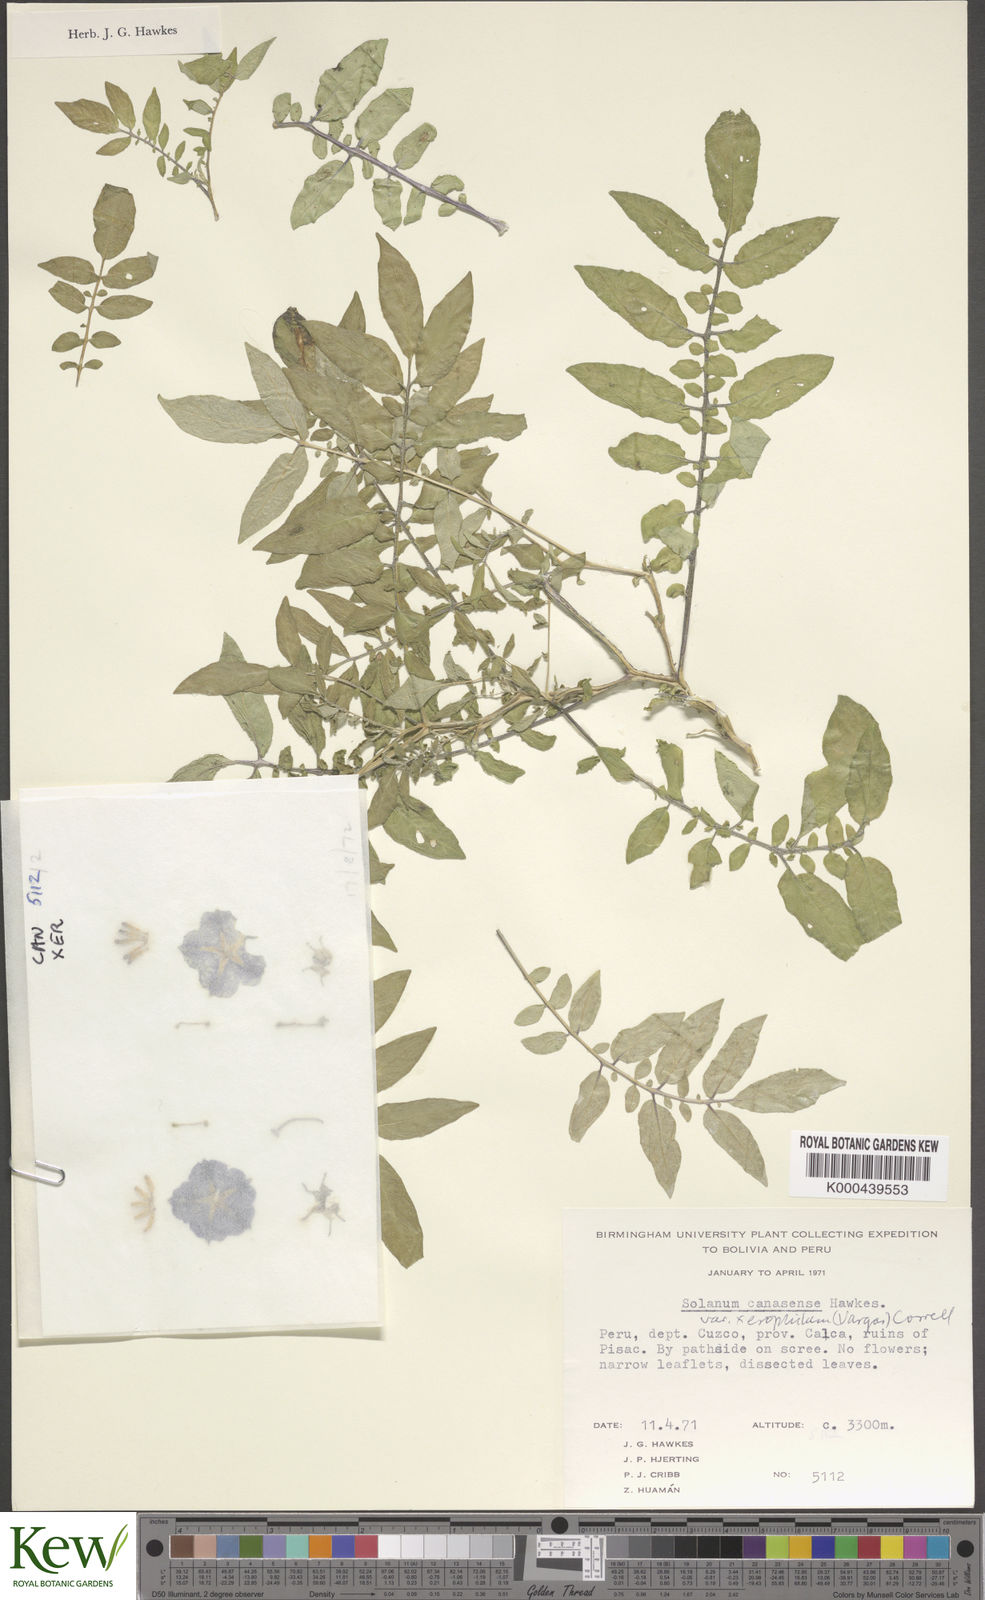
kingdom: Plantae
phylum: Tracheophyta
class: Magnoliopsida
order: Solanales
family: Solanaceae
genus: Solanum
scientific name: Solanum candolleanum
